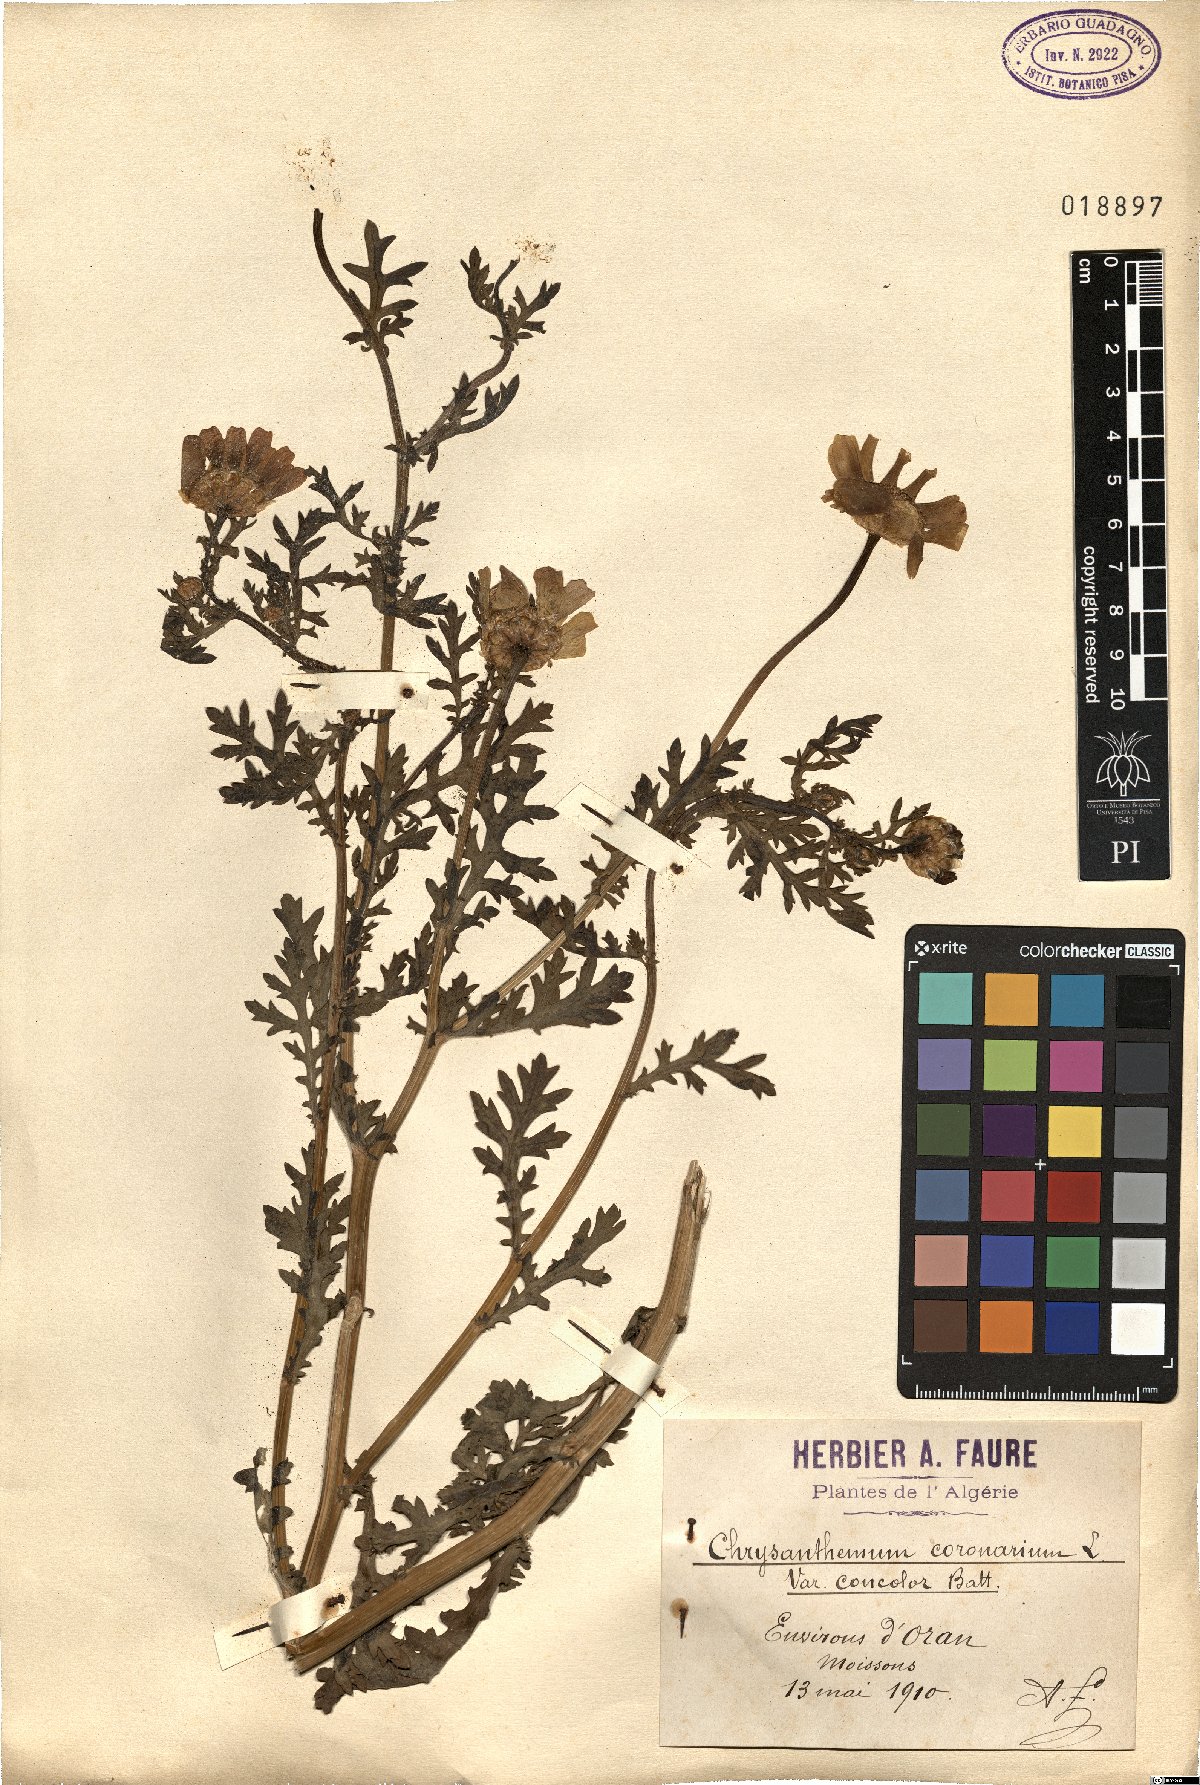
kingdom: Plantae
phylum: Tracheophyta
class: Magnoliopsida
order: Asterales
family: Asteraceae
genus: Glebionis
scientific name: Glebionis coronaria
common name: Crowndaisy
